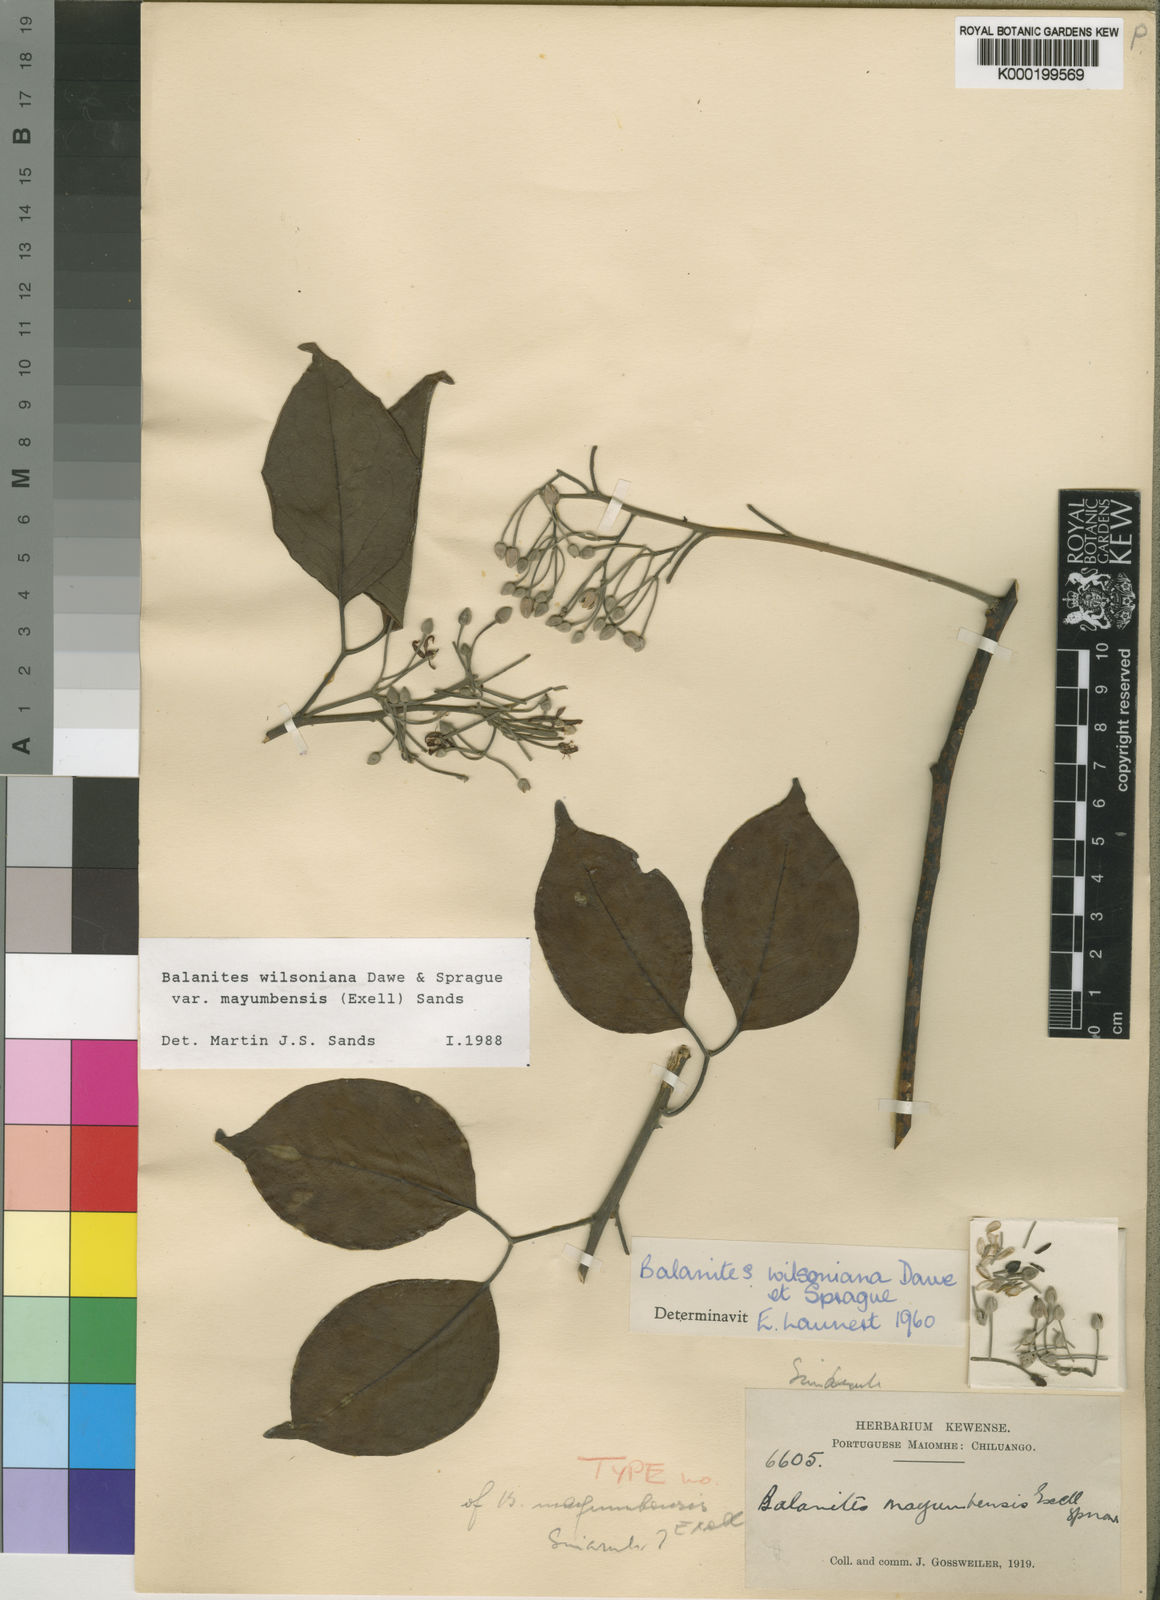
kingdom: Plantae
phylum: Tracheophyta
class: Magnoliopsida
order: Zygophyllales
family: Zygophyllaceae
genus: Balanites
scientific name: Balanites wilsoniana
